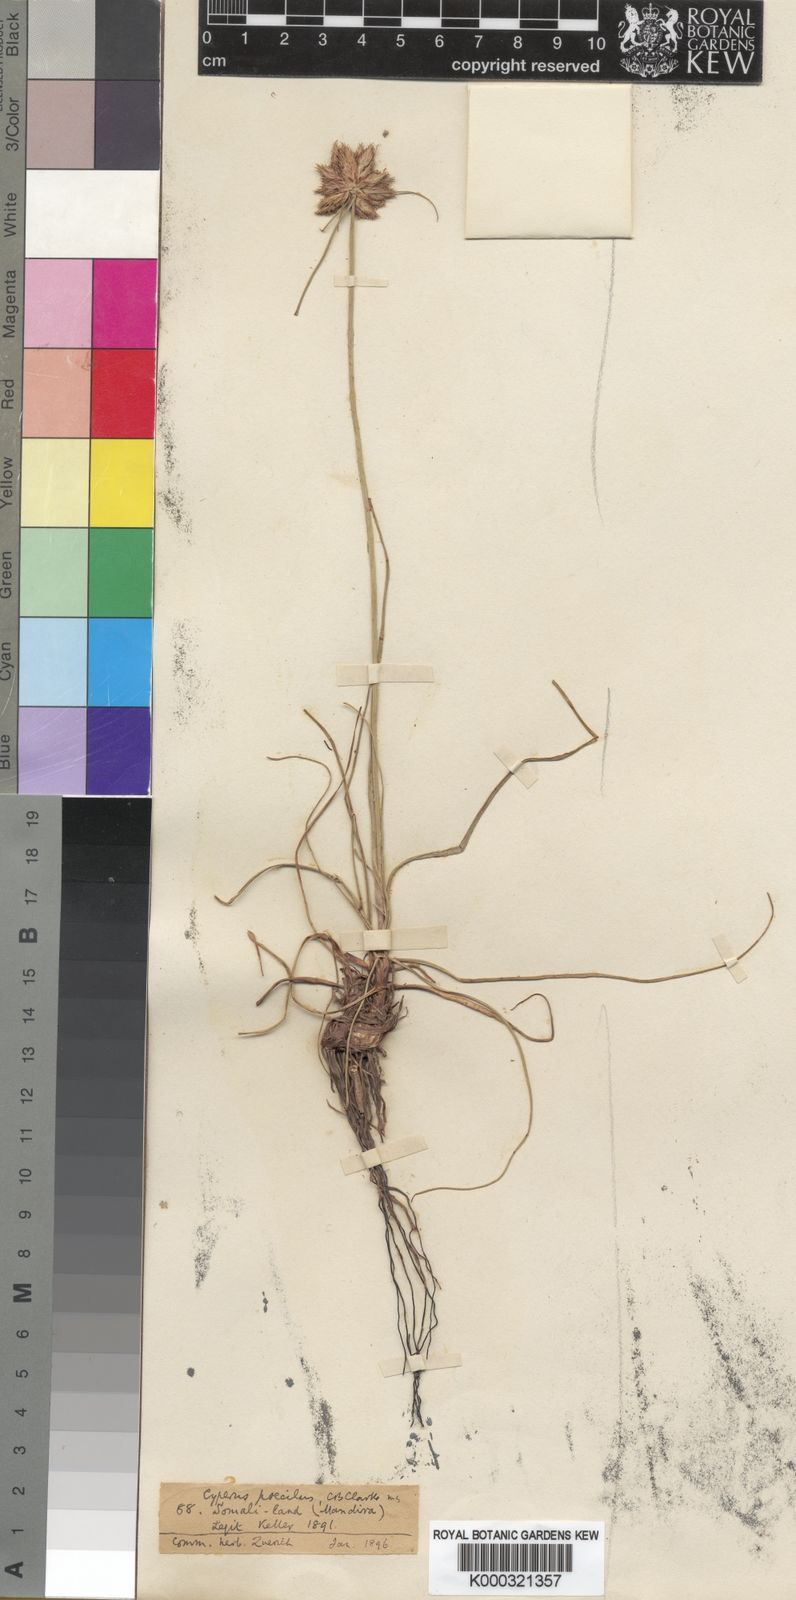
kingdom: Plantae
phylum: Tracheophyta
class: Liliopsida
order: Poales
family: Cyperaceae
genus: Cyperus
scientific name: Cyperus poecilus
